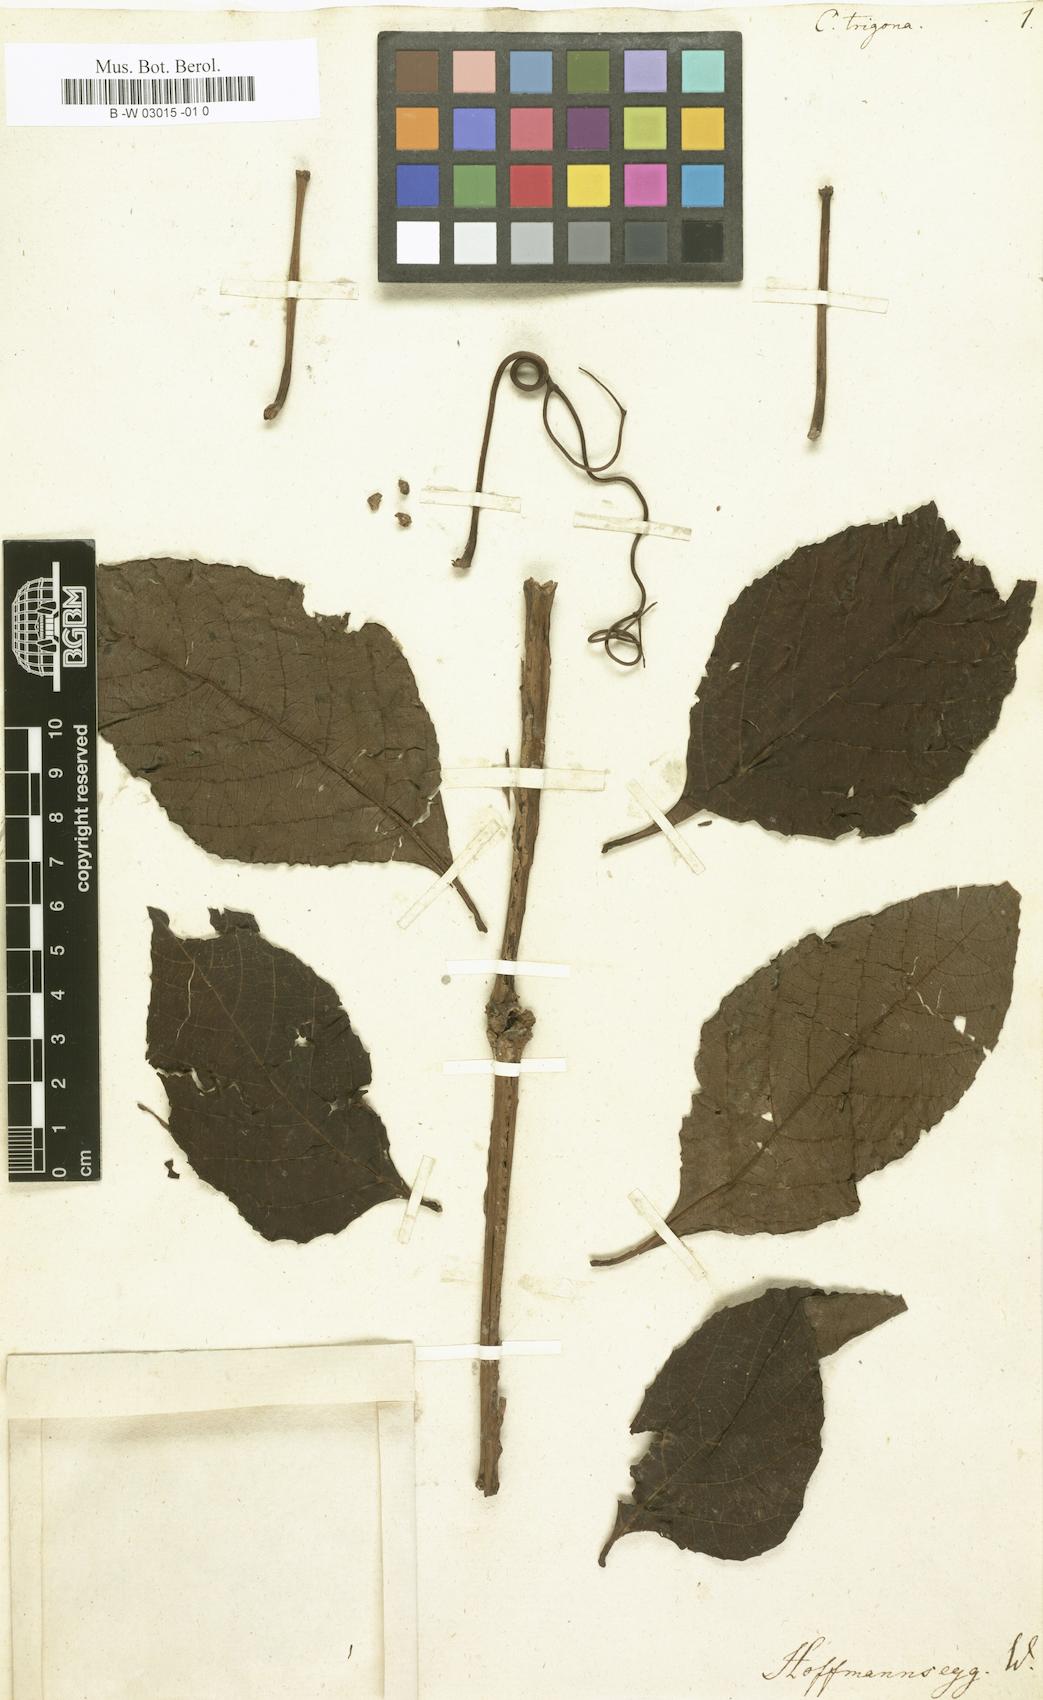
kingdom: Plantae
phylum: Tracheophyta
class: Magnoliopsida
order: Vitales
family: Vitaceae
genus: Cissus
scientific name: Cissus trigona
